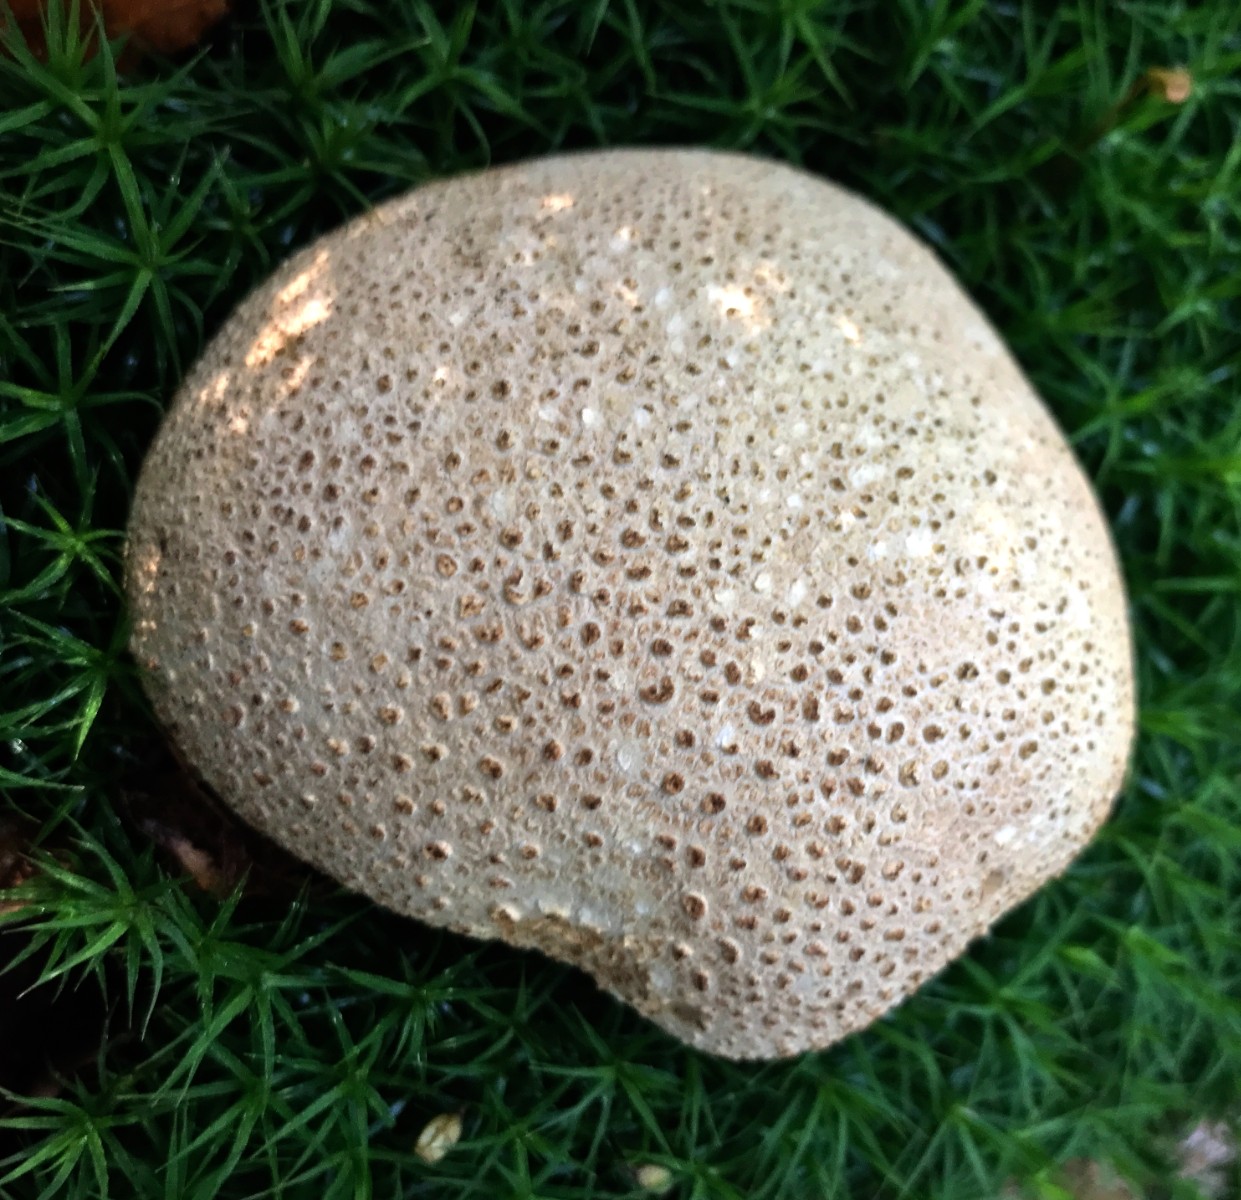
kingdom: Fungi
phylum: Basidiomycota
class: Agaricomycetes
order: Boletales
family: Sclerodermataceae
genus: Scleroderma
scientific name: Scleroderma citrinum
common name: almindelig bruskbold
